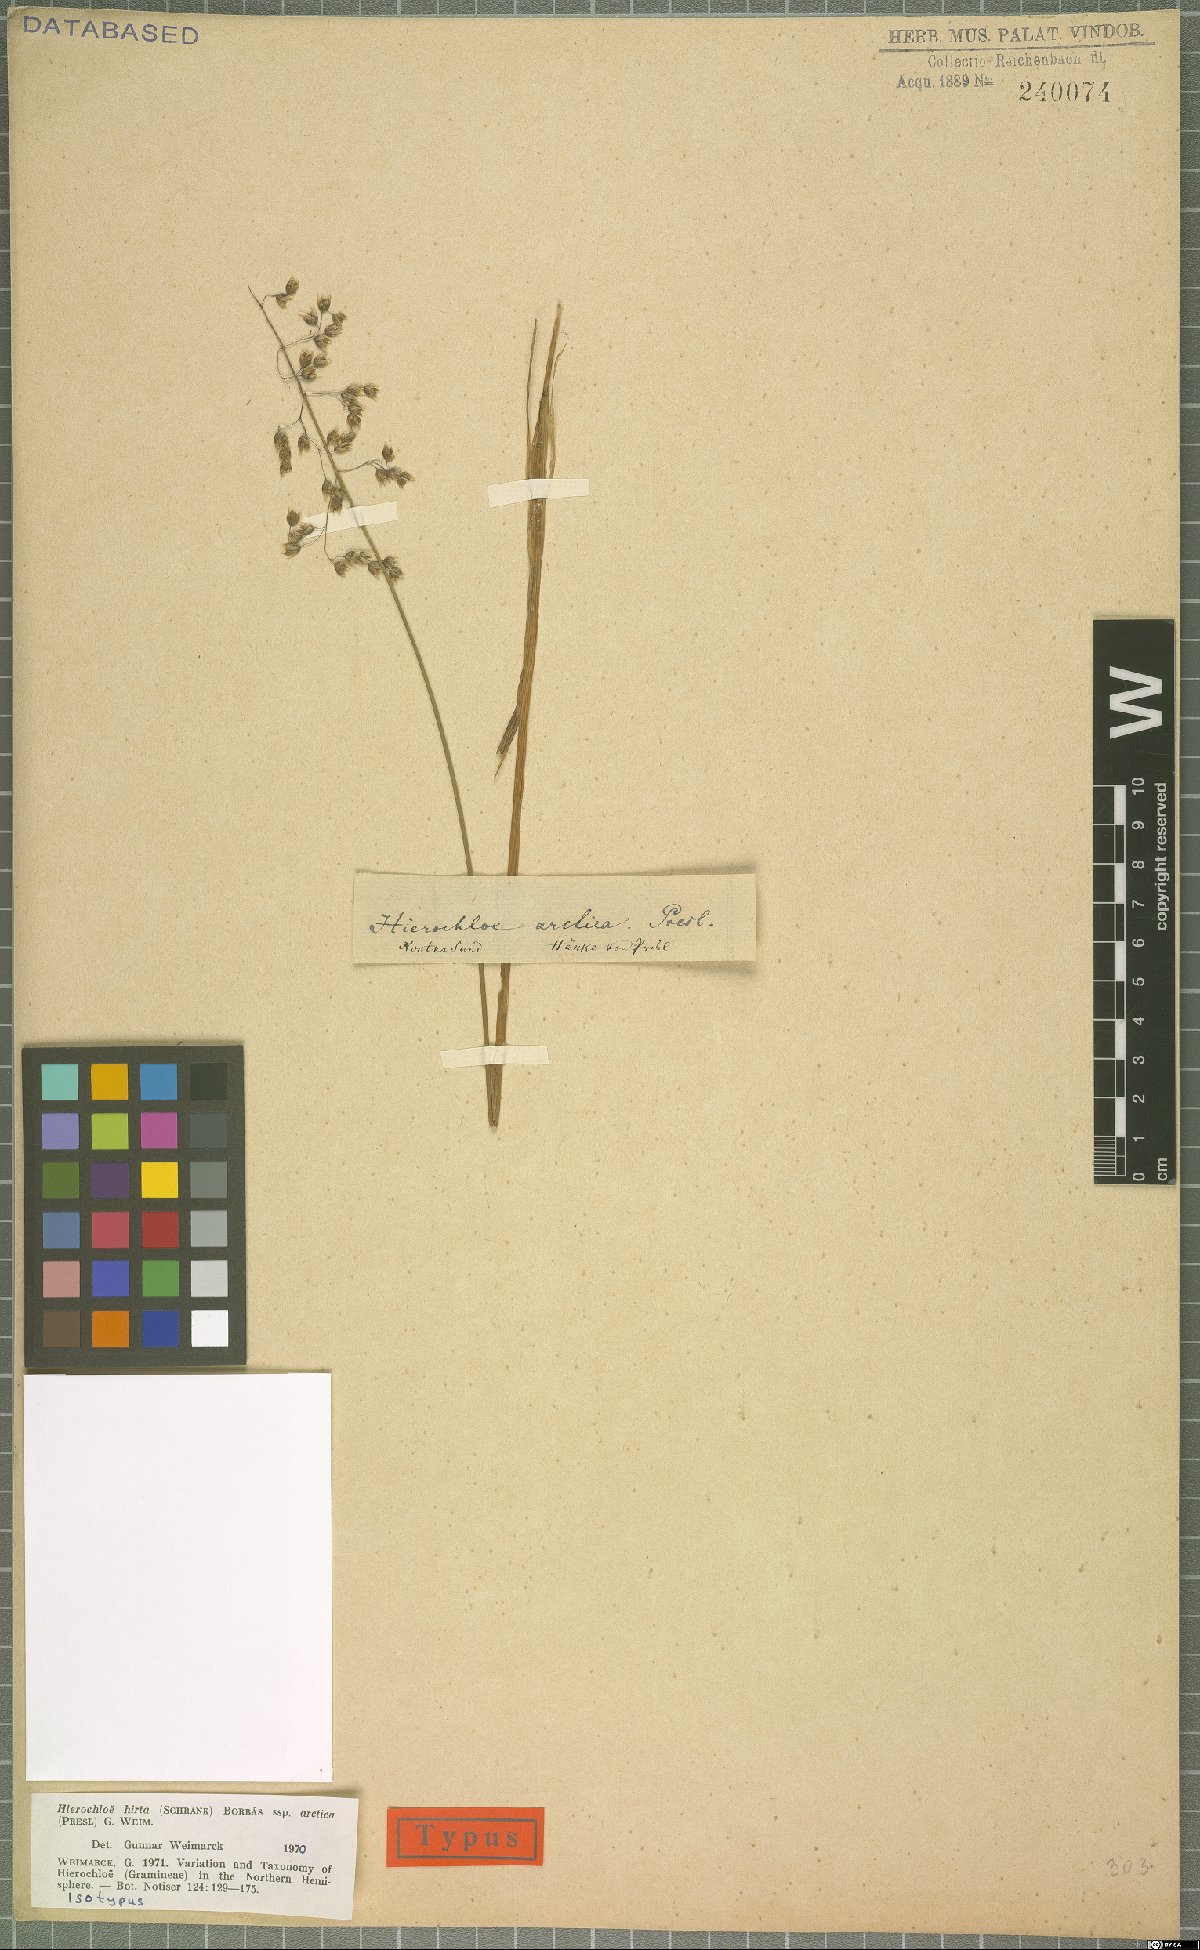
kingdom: Plantae
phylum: Tracheophyta
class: Liliopsida
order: Poales
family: Poaceae
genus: Anthoxanthum
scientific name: Anthoxanthum nitens
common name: Holy grass
